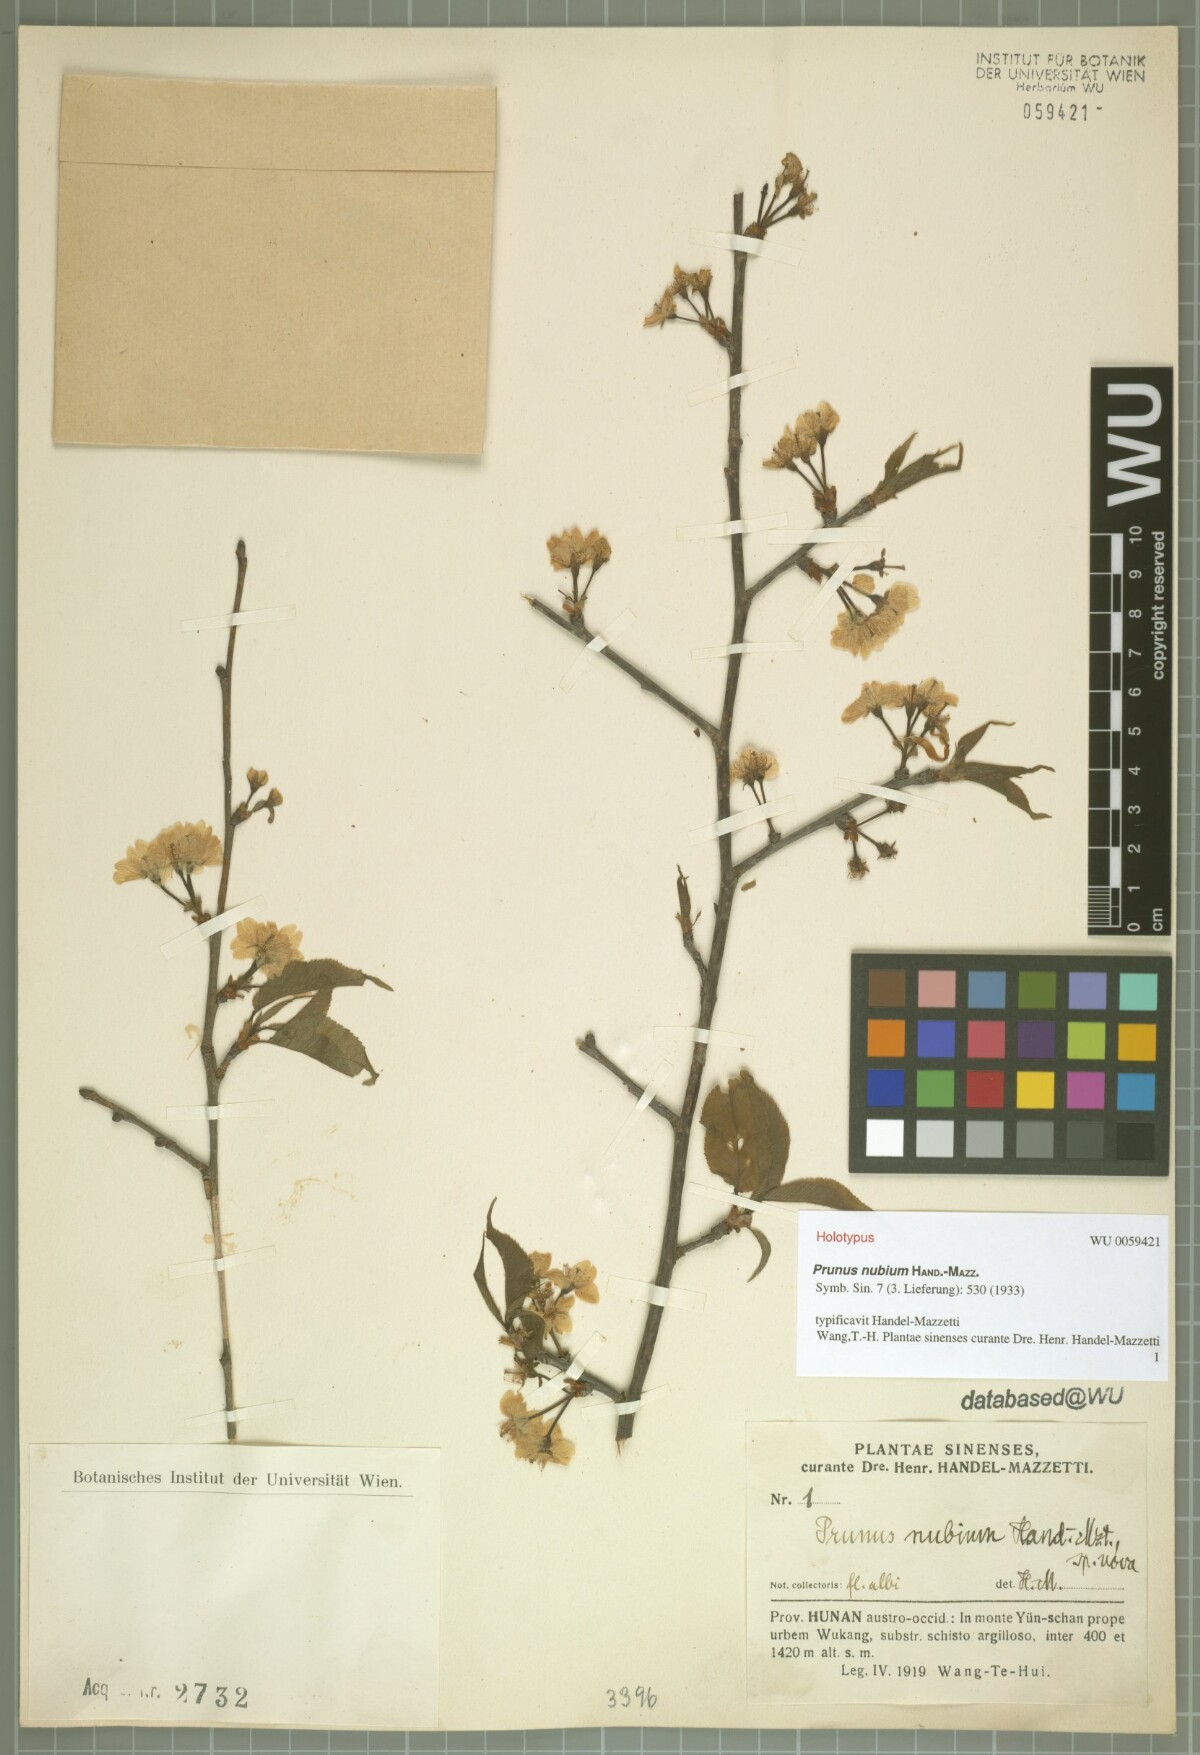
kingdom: Plantae
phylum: Tracheophyta
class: Magnoliopsida
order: Rosales
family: Rosaceae
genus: Prunus
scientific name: Prunus nubium
